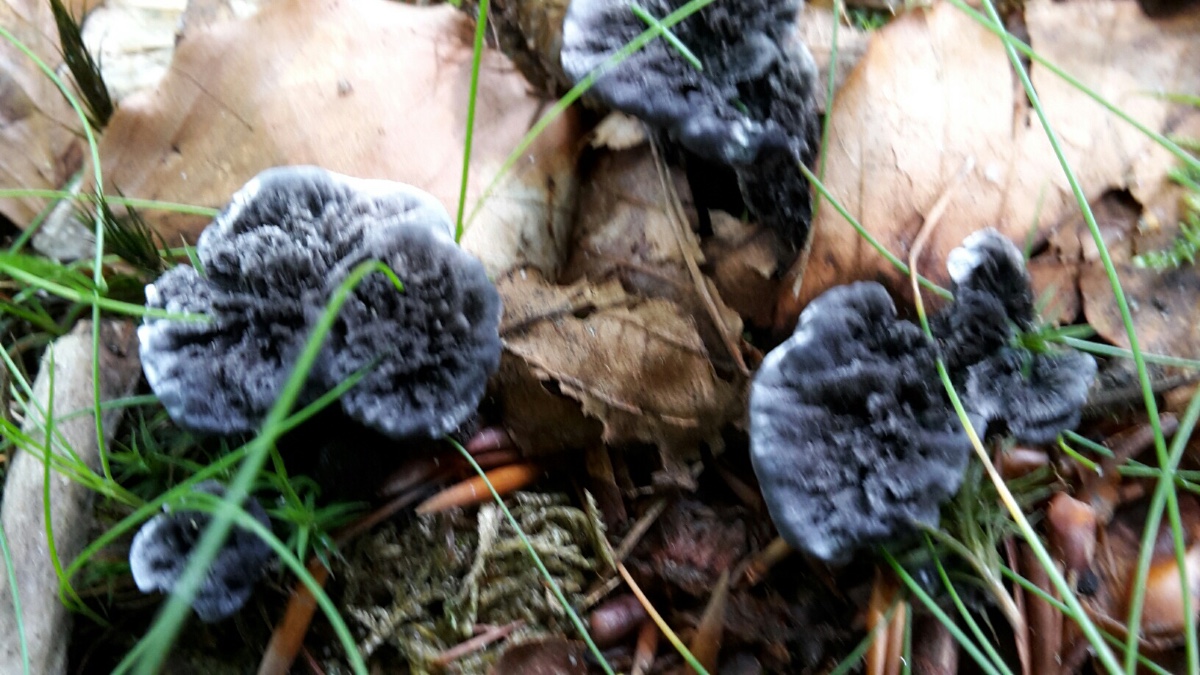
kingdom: Fungi
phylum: Basidiomycota
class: Agaricomycetes
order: Thelephorales
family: Thelephoraceae
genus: Phellodon
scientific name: Phellodon
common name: mørk duftpigsvamp
